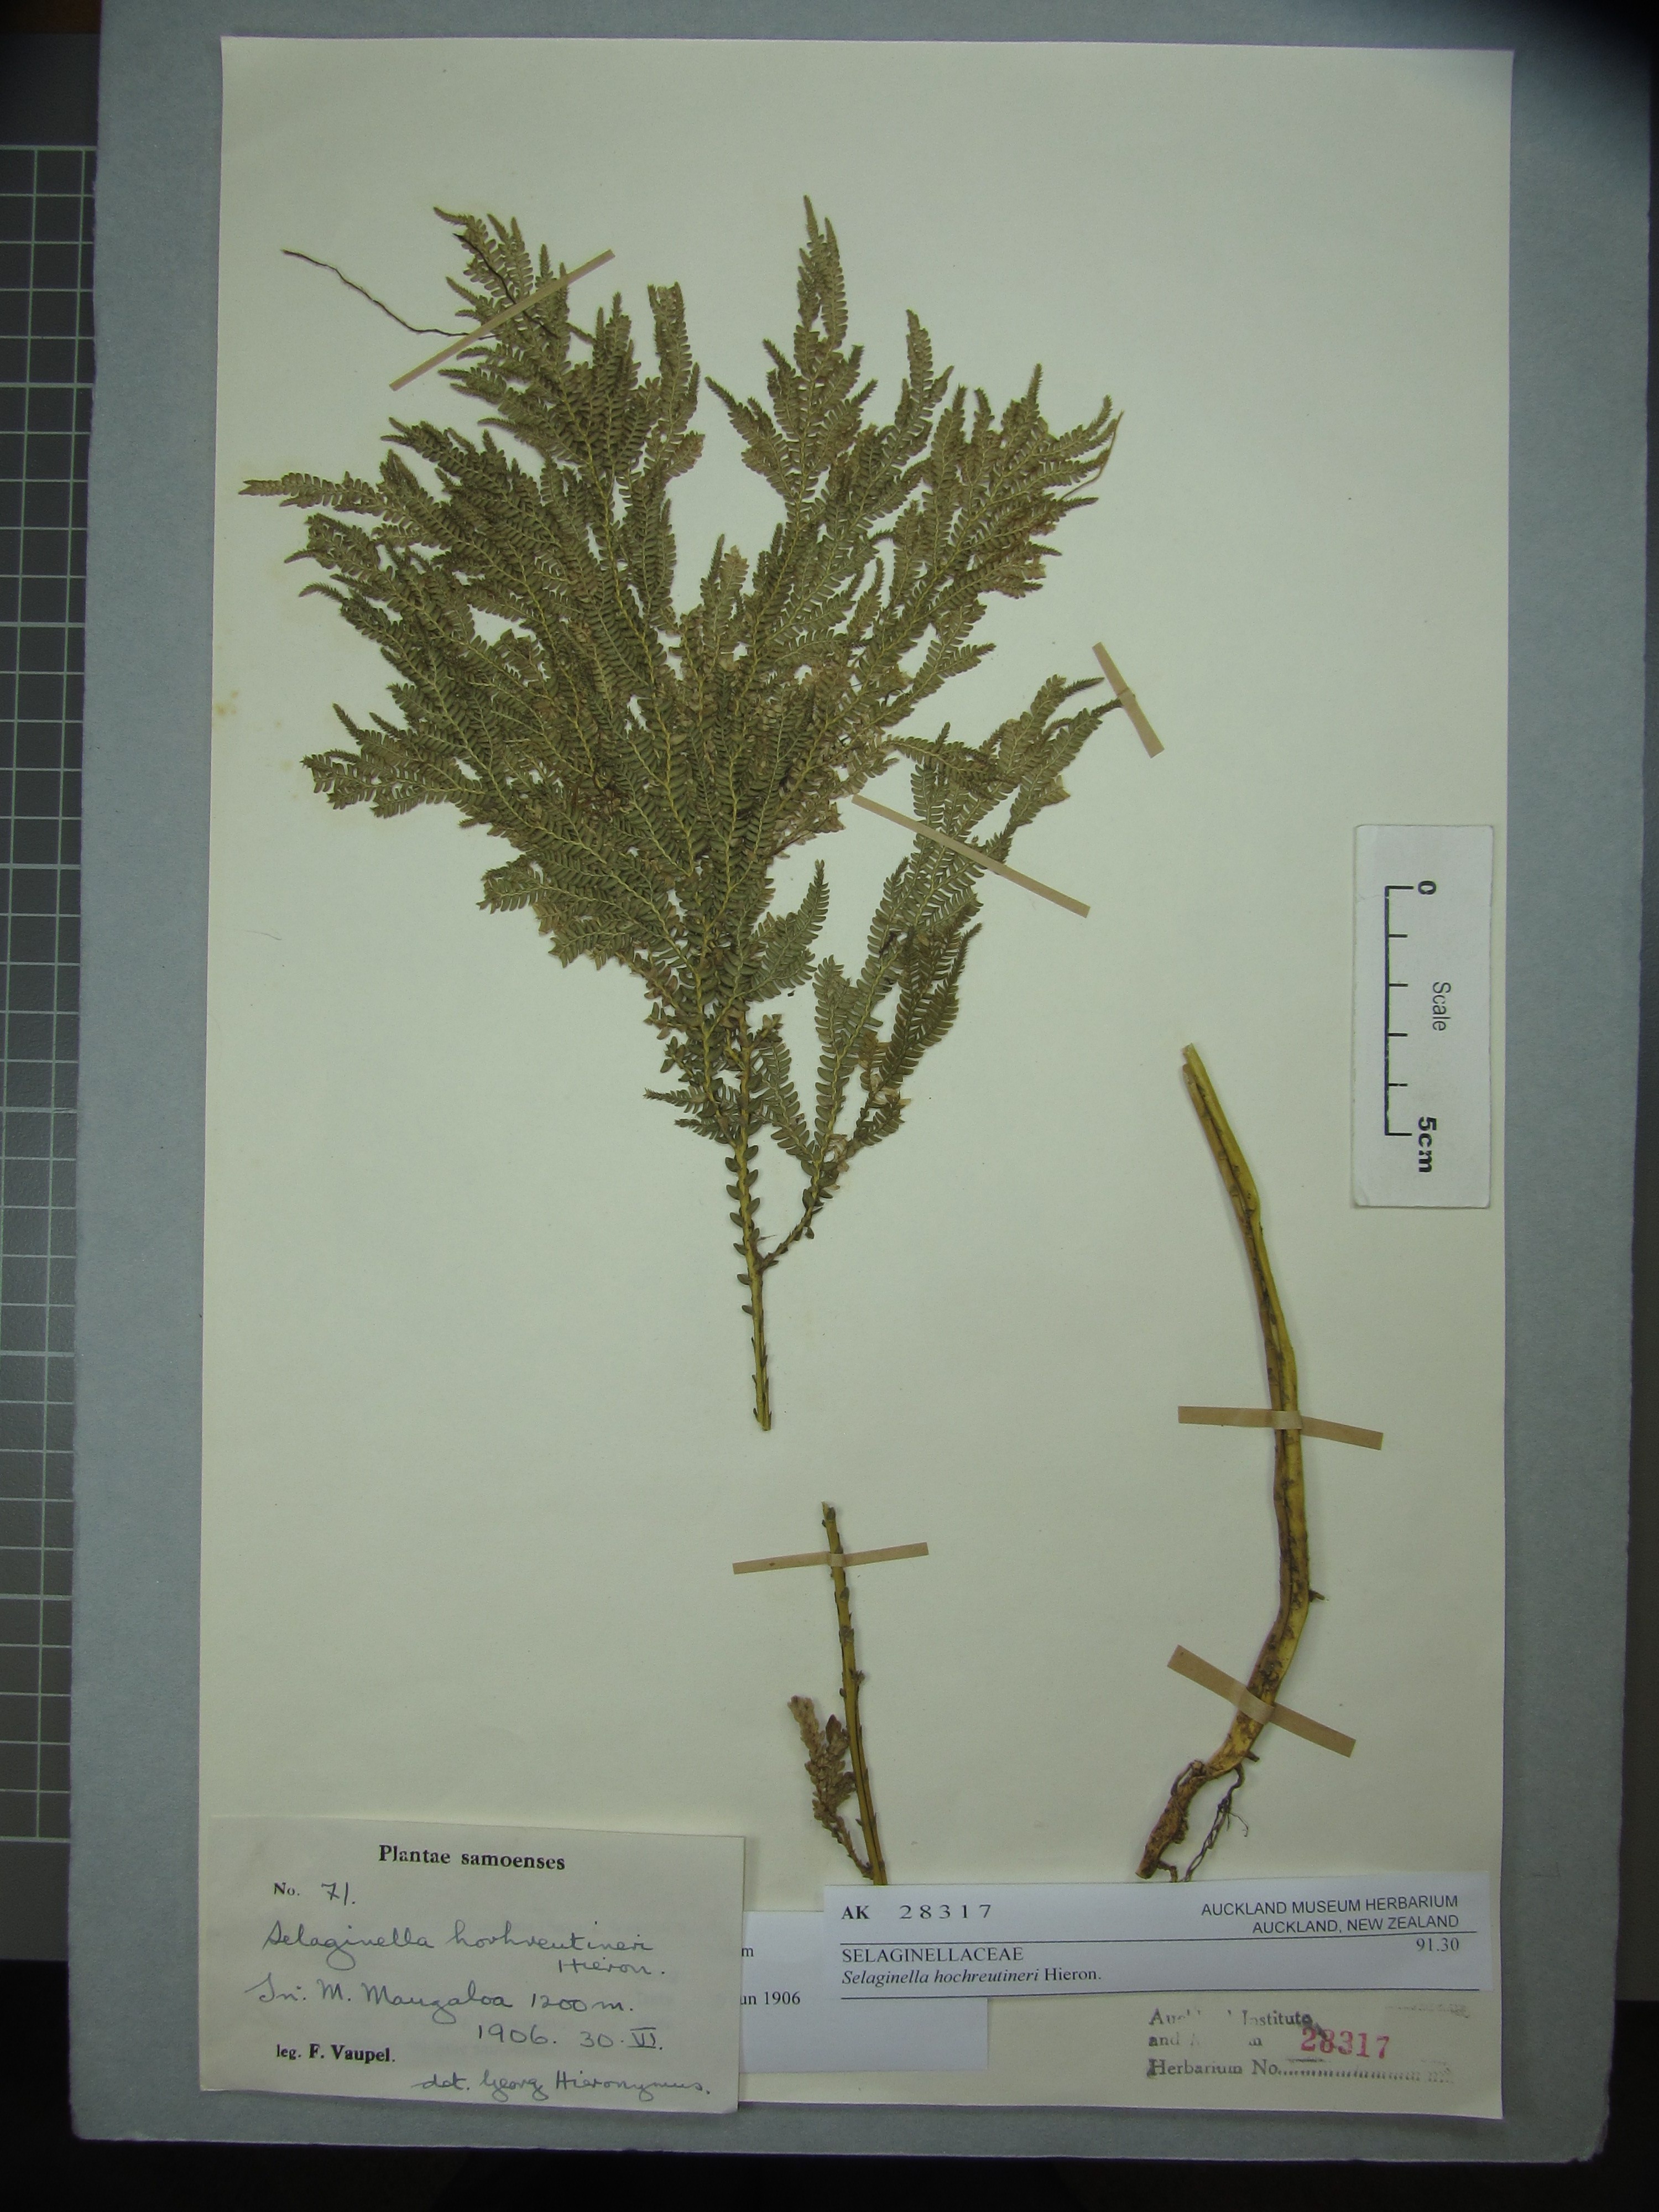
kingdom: Plantae
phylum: Tracheophyta
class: Lycopodiopsida
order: Selaginellales
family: Selaginellaceae
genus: Selaginella
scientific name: Selaginella hochreutineri
